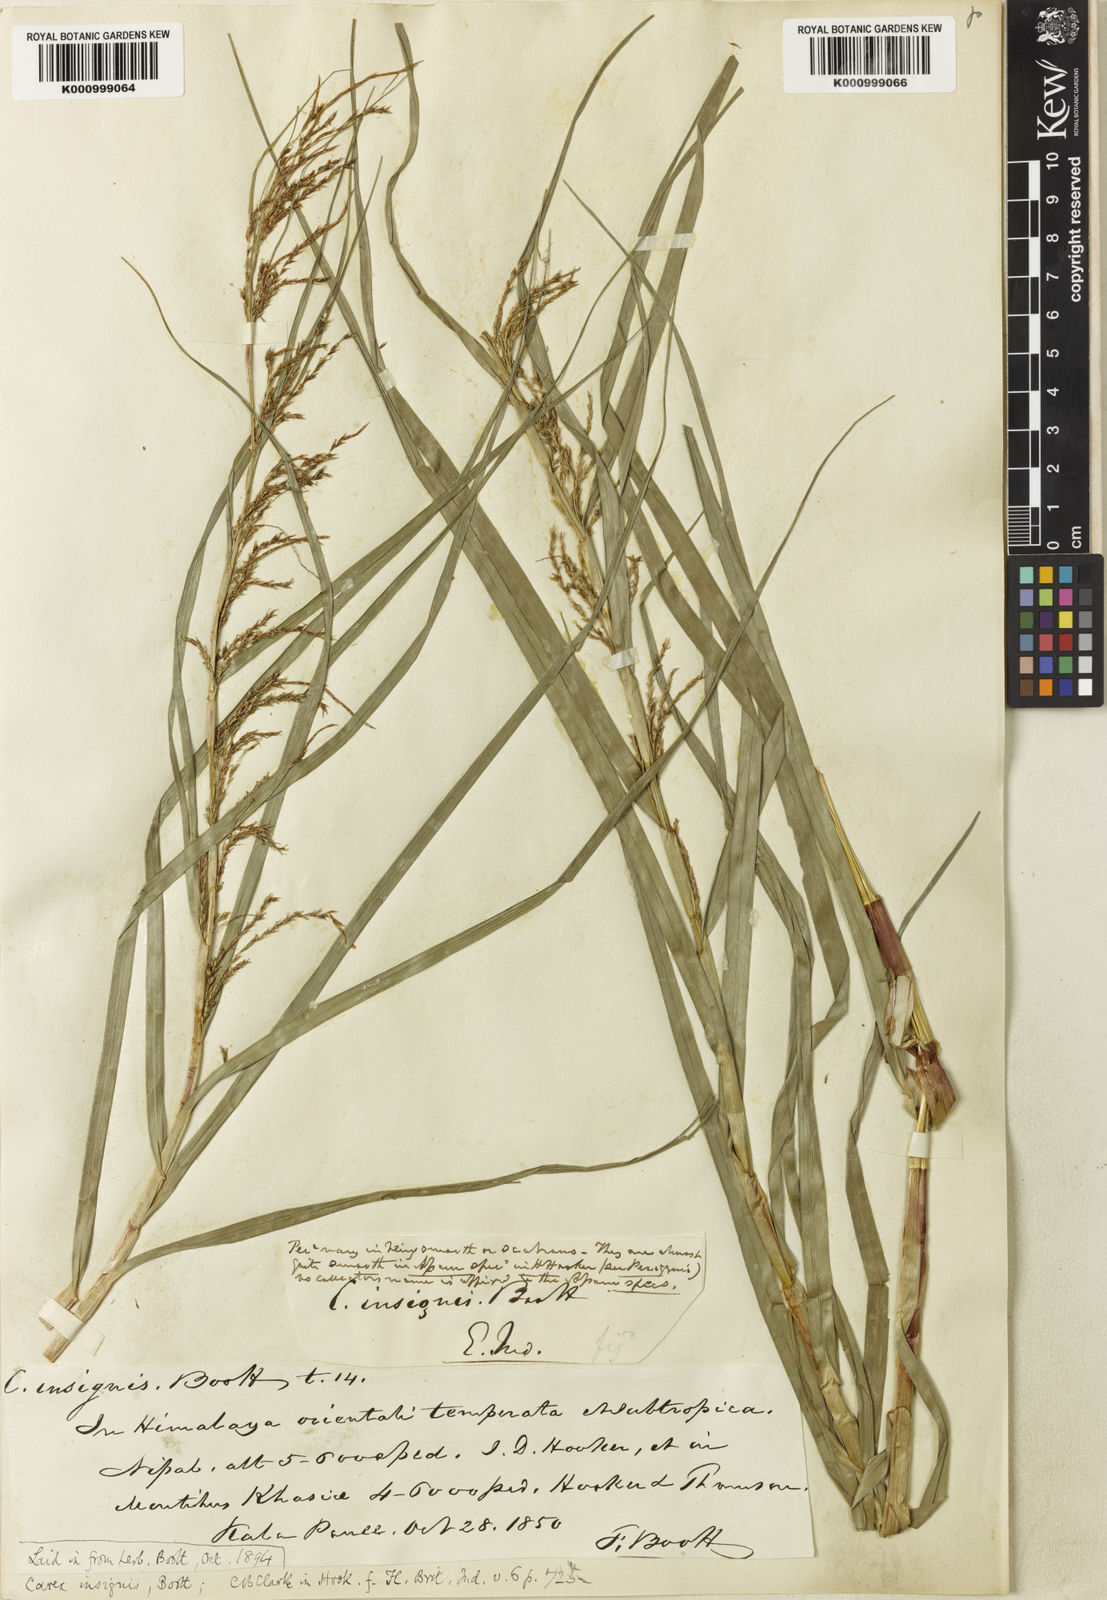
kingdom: Plantae
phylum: Tracheophyta
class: Liliopsida
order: Poales
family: Cyperaceae
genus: Carex
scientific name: Carex insignis
